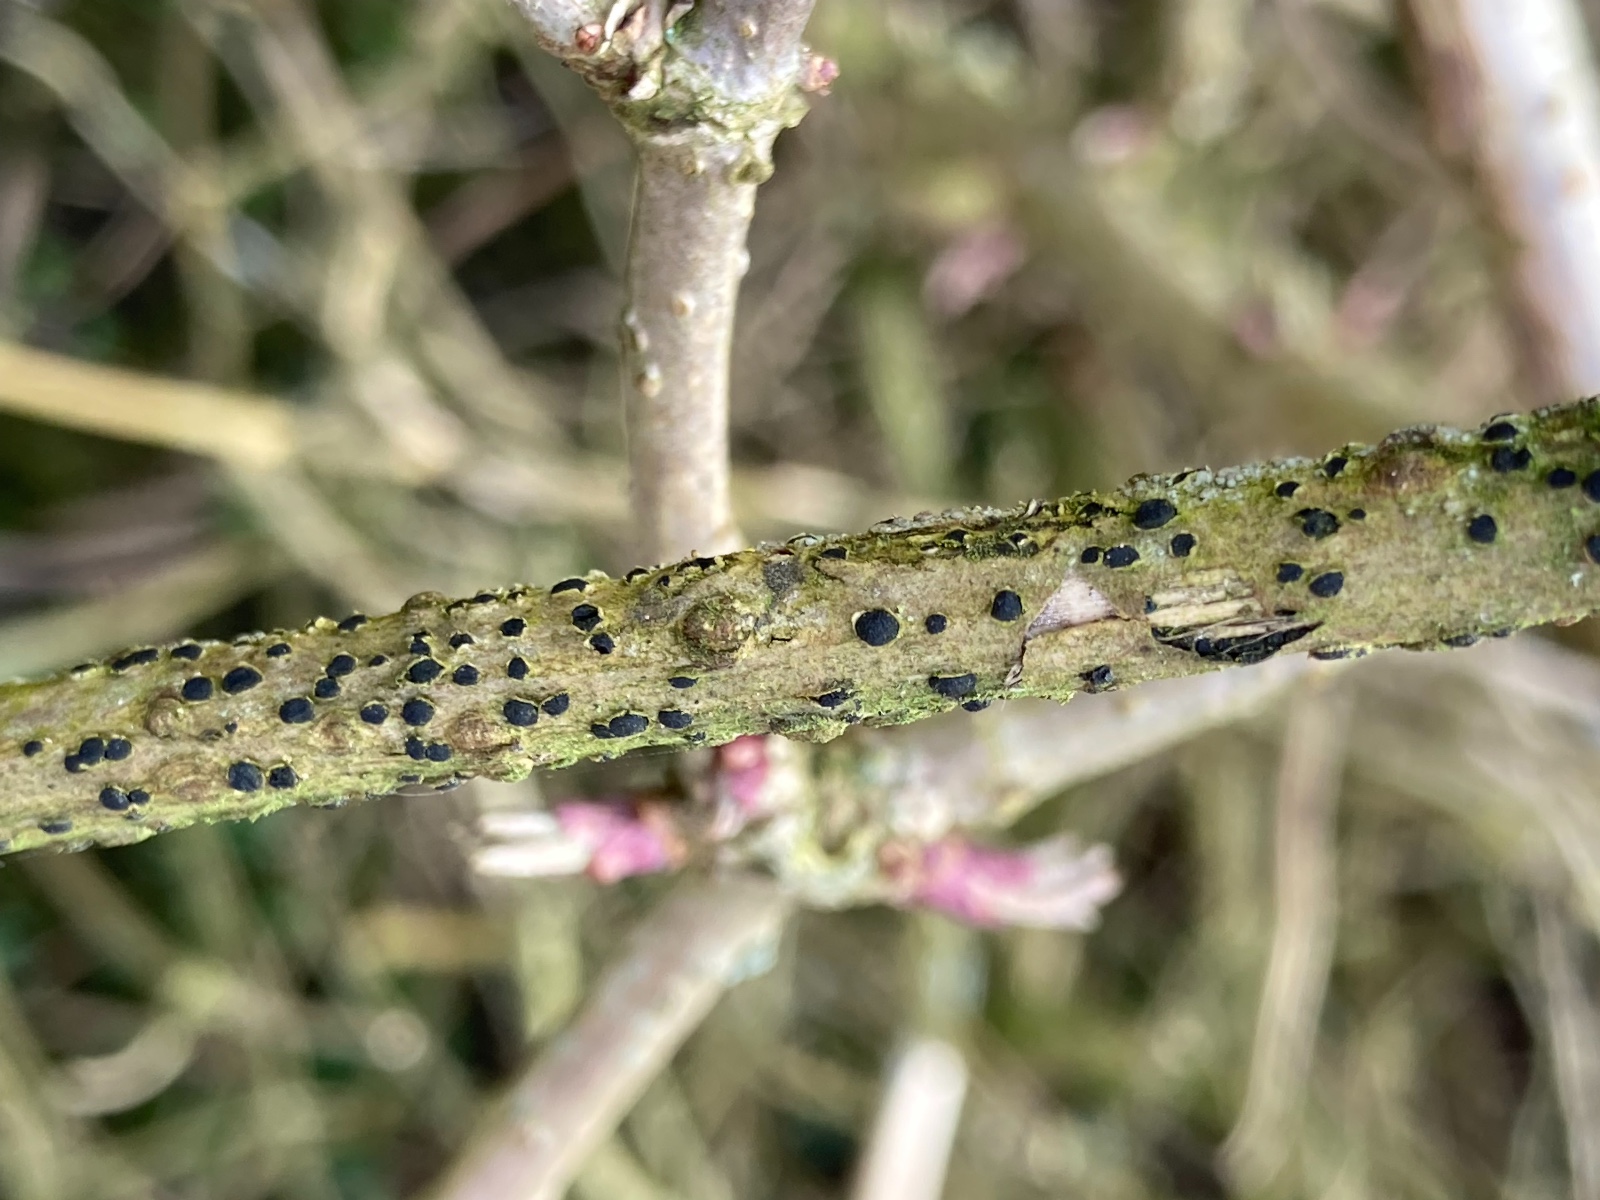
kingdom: Fungi
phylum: Ascomycota
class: Dothideomycetes
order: Dothideales
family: Dothideaceae
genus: Dothidea
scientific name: Dothidea sambuci
